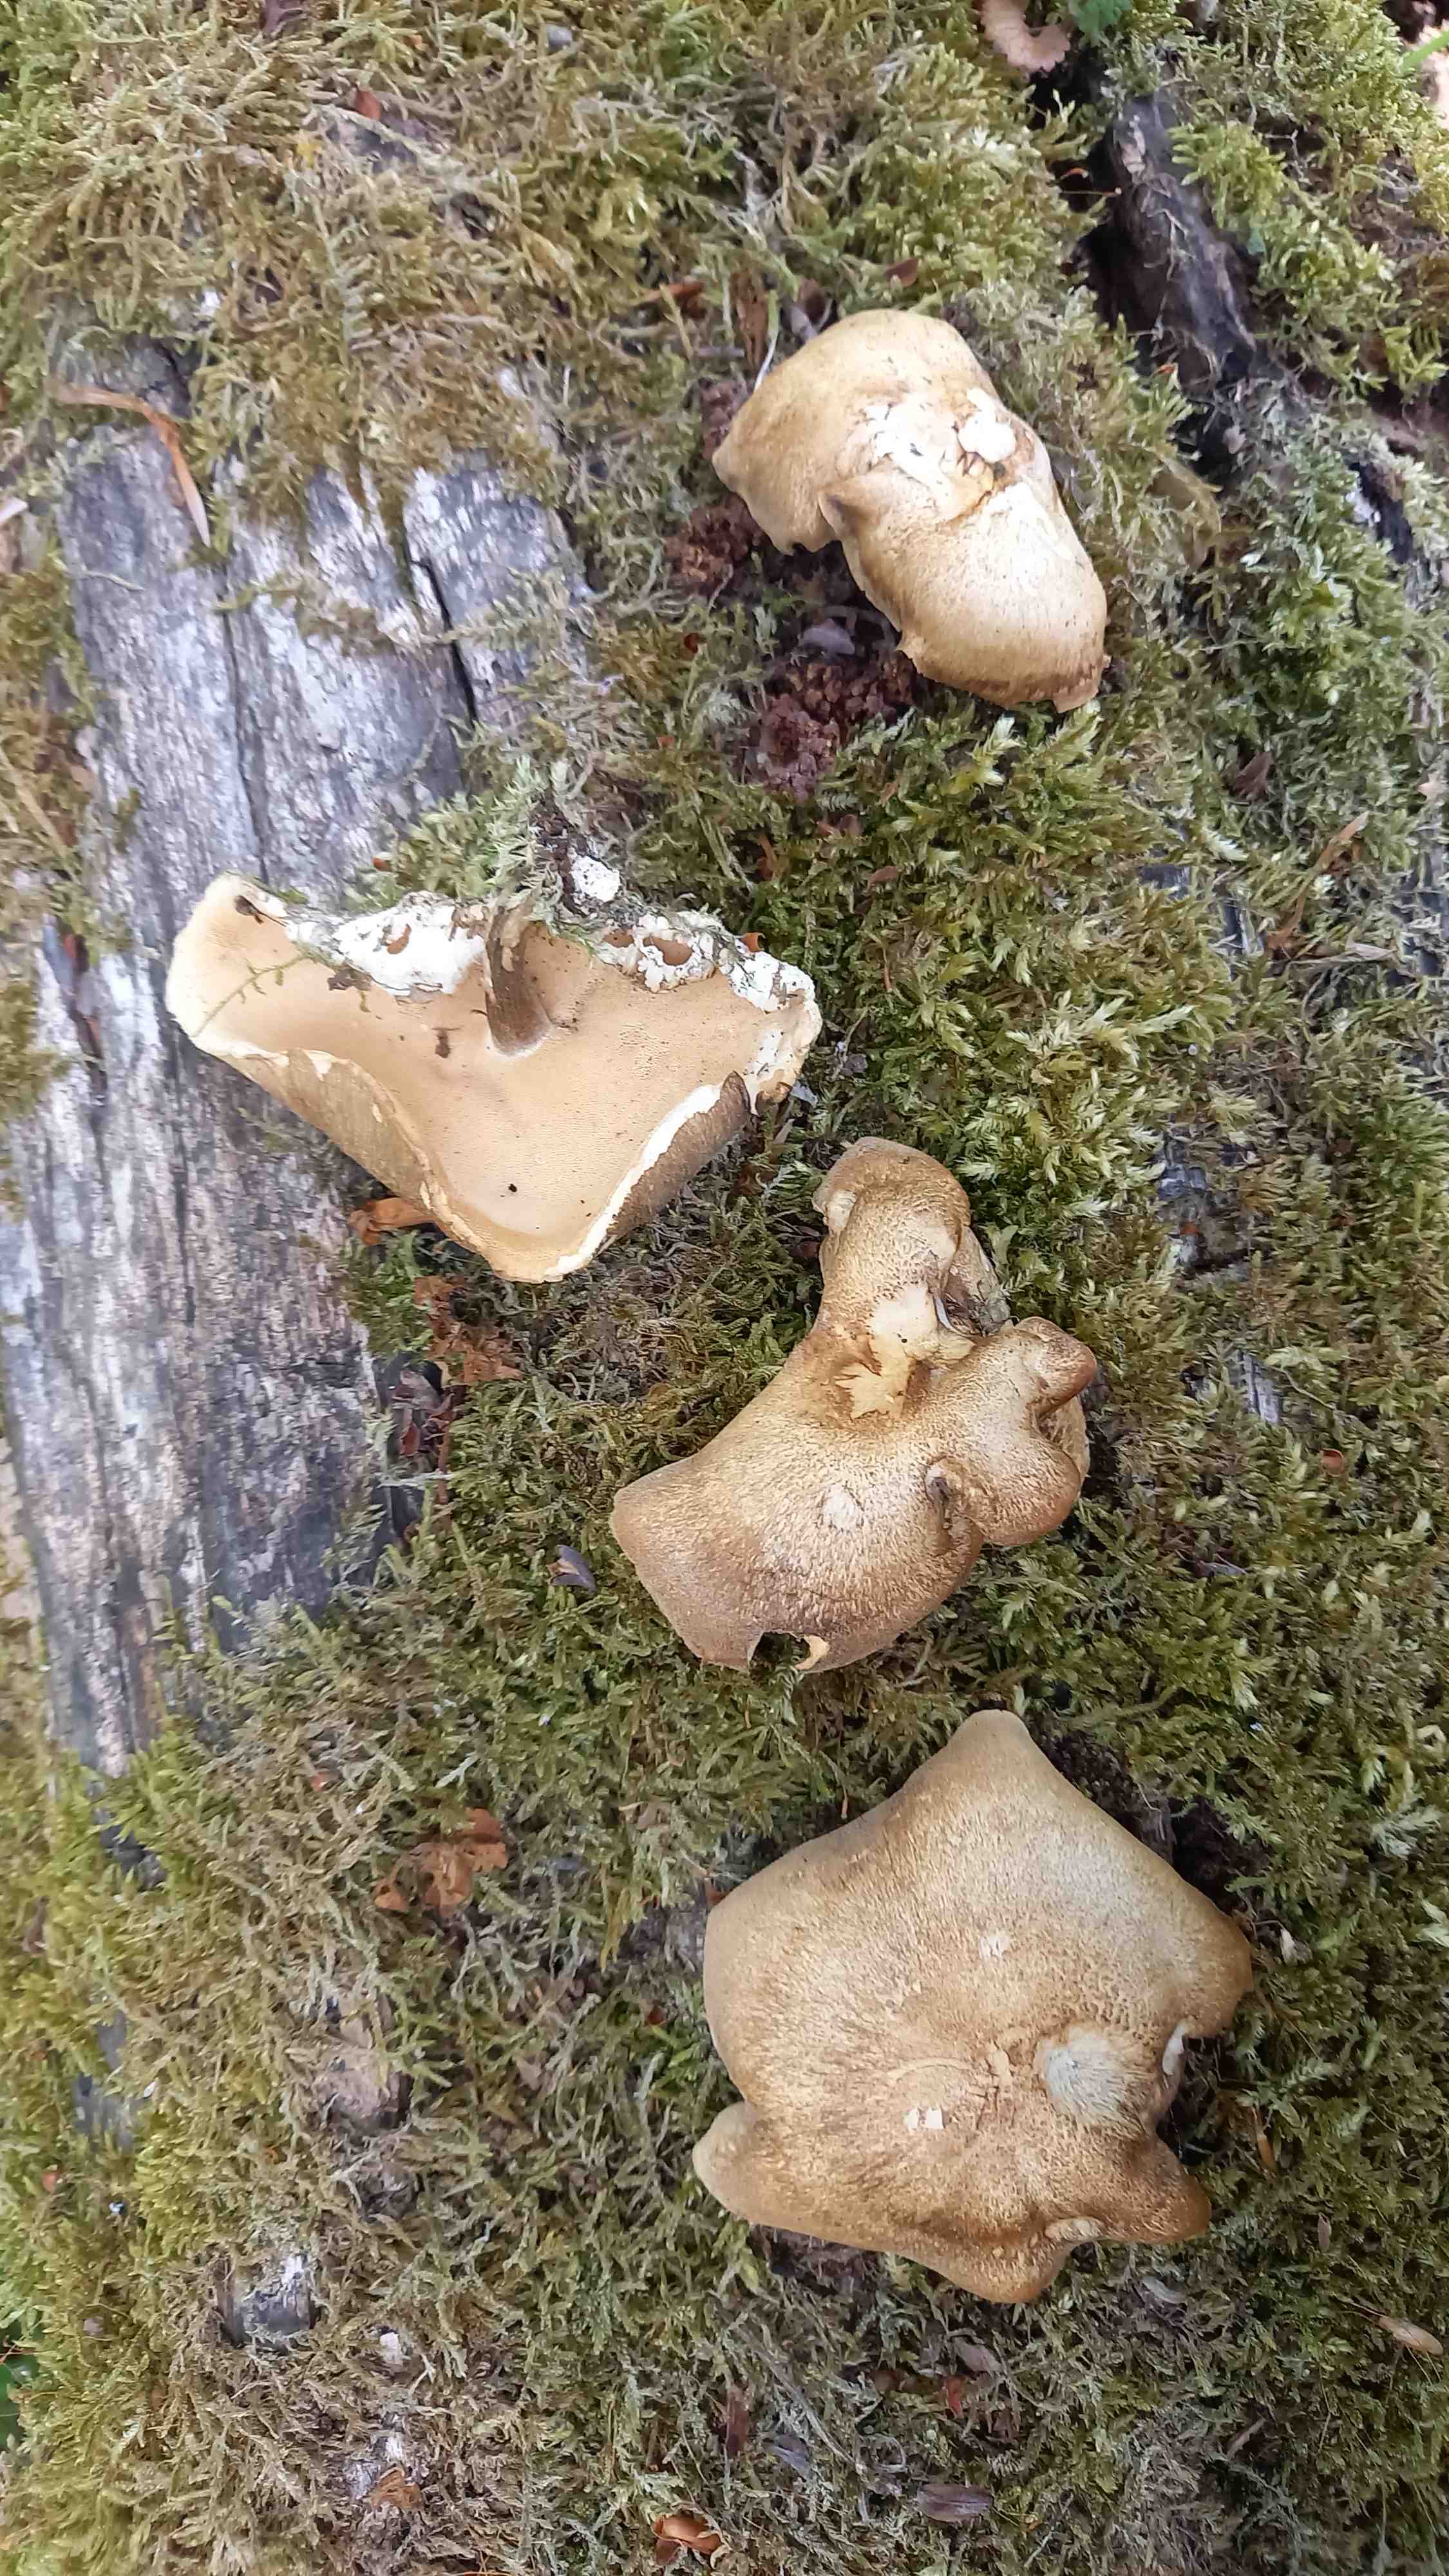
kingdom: Fungi
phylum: Basidiomycota
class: Agaricomycetes
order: Polyporales
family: Polyporaceae
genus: Lentinus
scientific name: Lentinus substrictus
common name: forårs-stilkporesvamp
